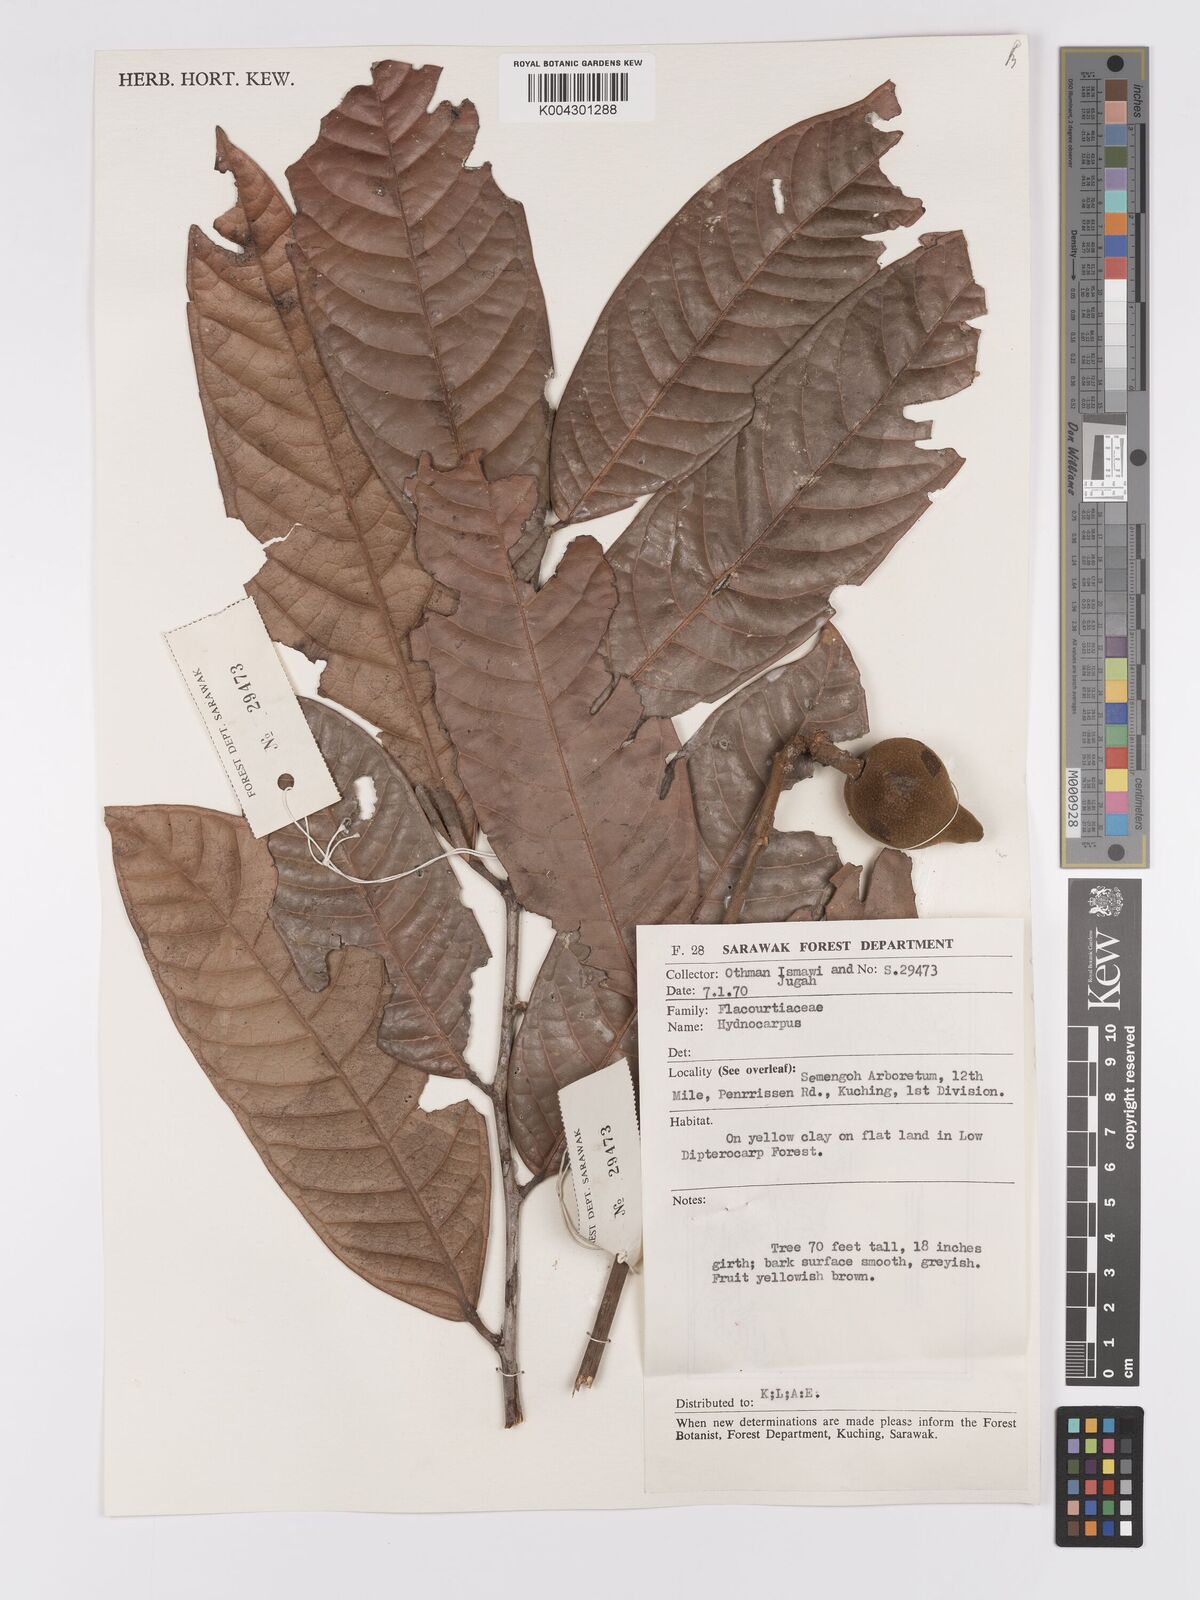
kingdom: Plantae
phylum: Tracheophyta
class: Magnoliopsida
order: Malpighiales
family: Achariaceae
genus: Hydnocarpus
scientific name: Hydnocarpus
